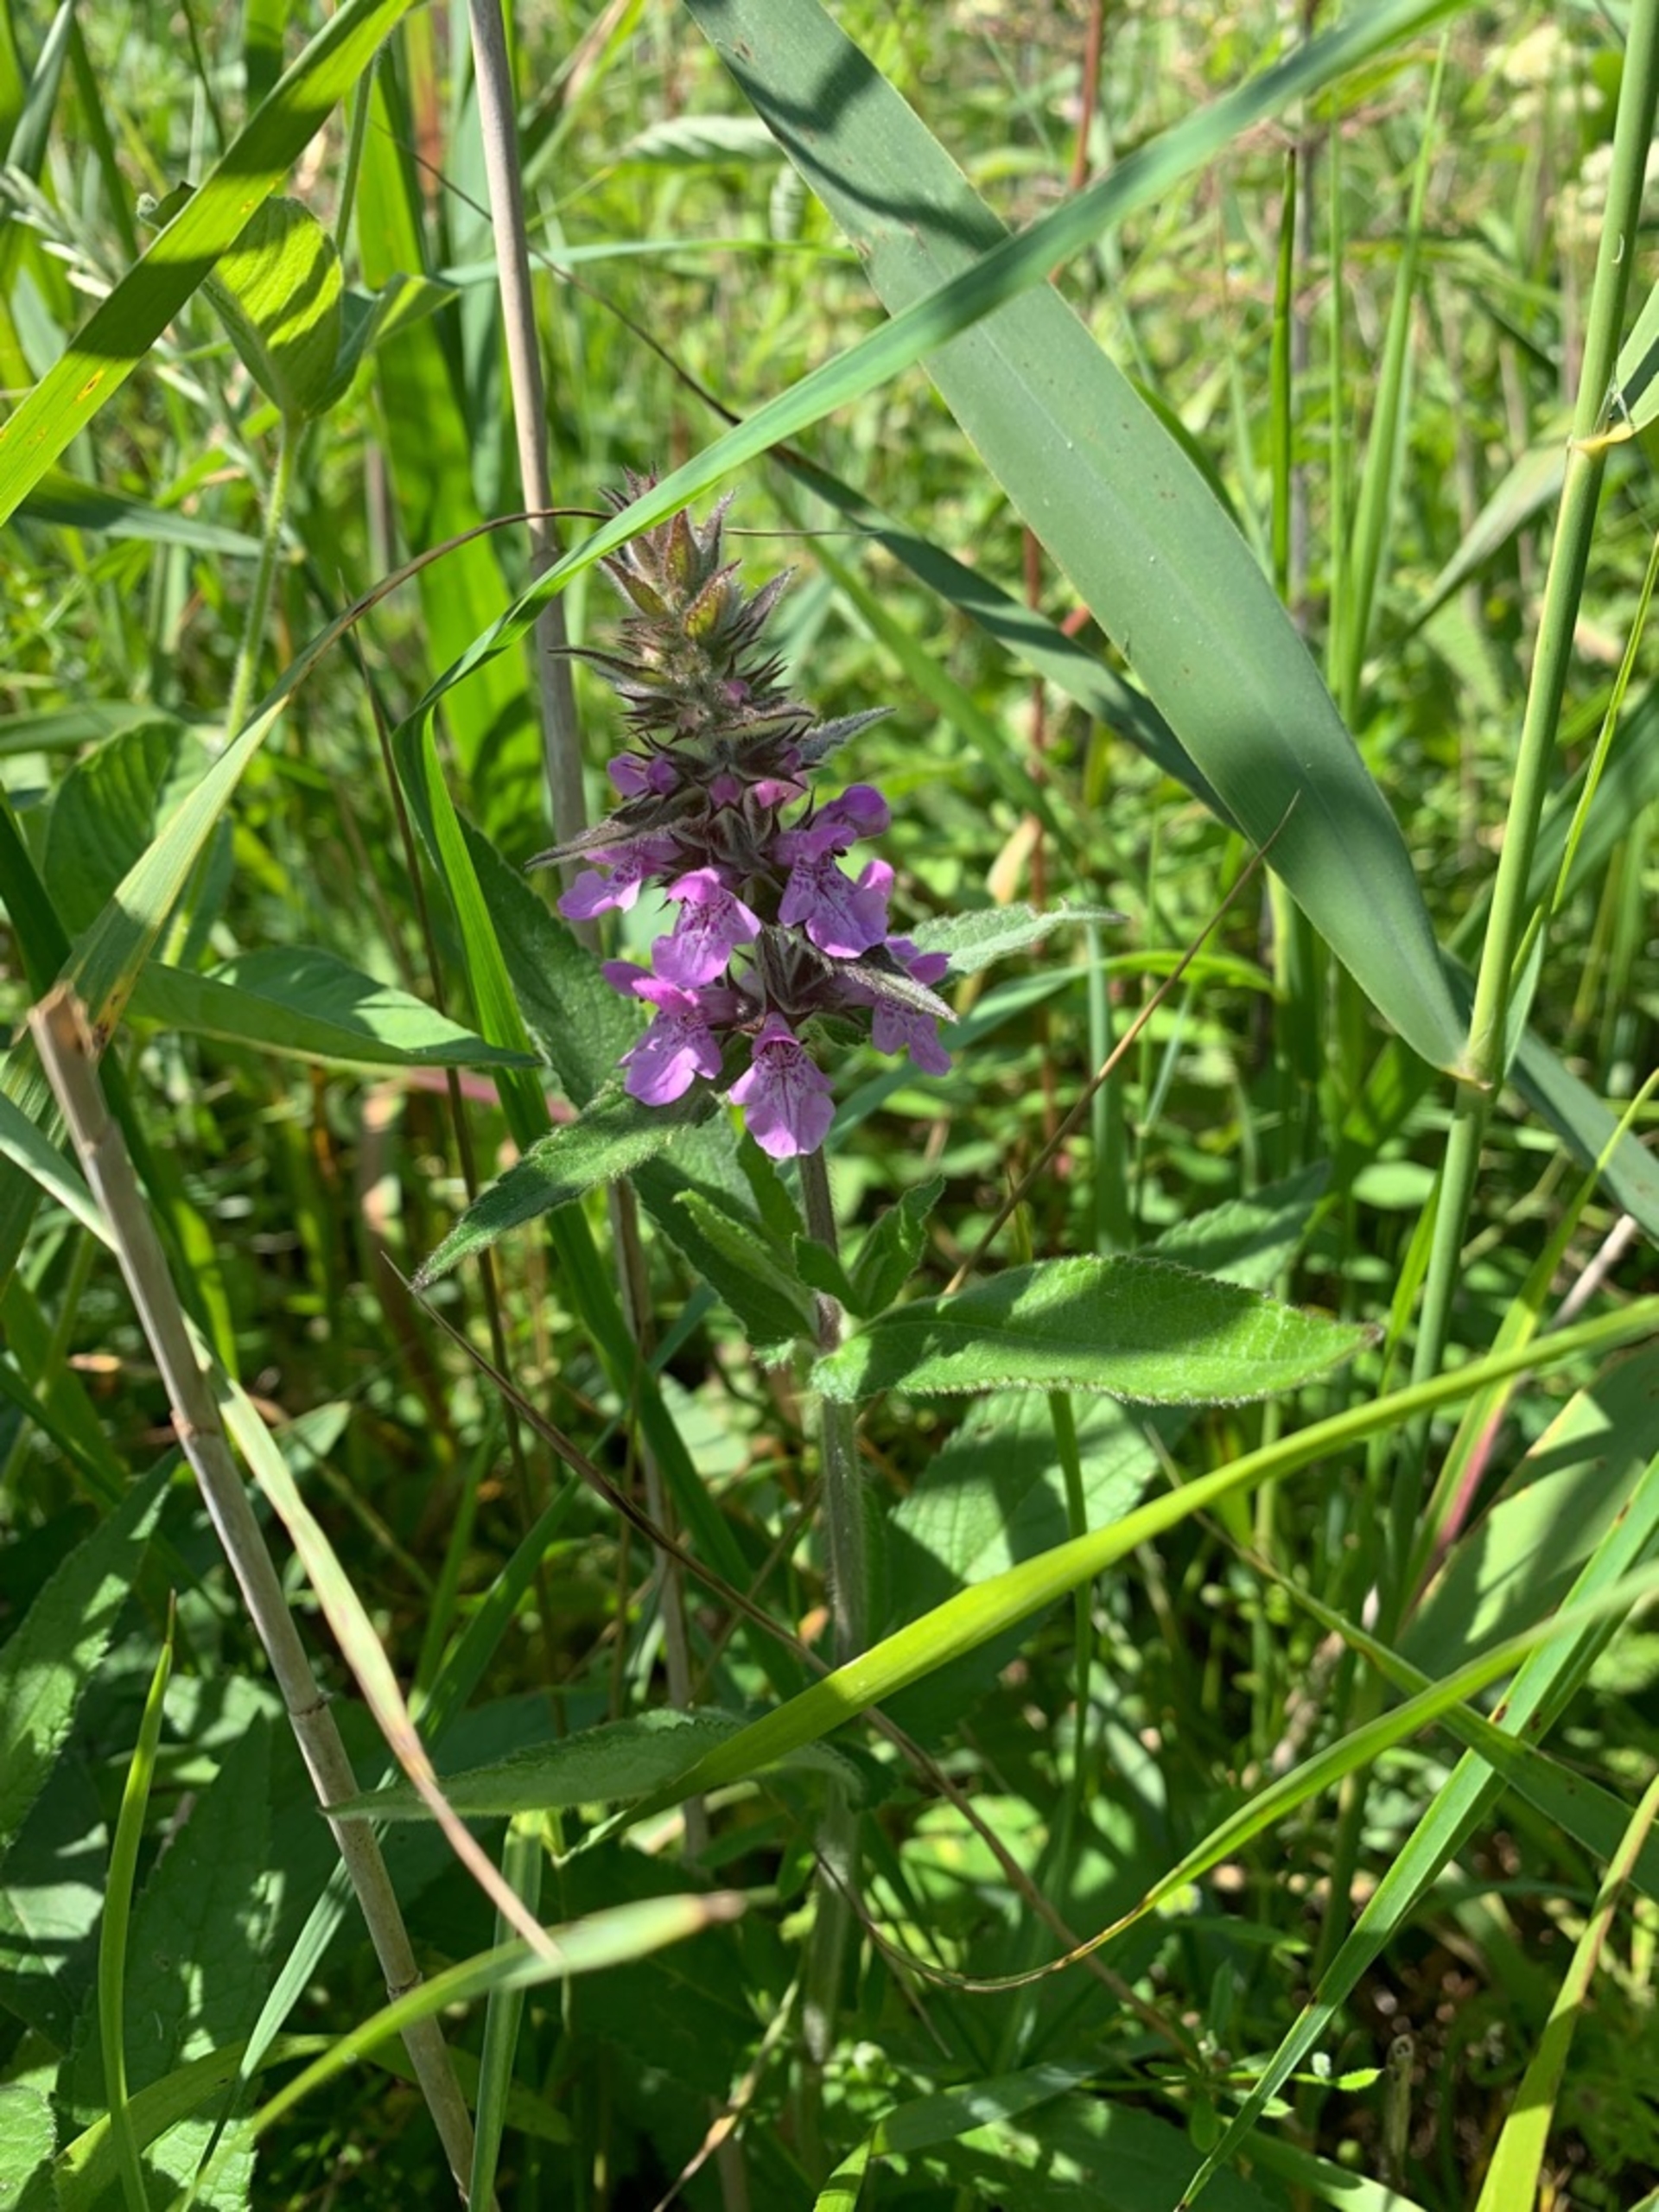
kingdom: Plantae
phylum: Tracheophyta
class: Magnoliopsida
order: Lamiales
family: Lamiaceae
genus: Stachys
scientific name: Stachys palustris
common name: Kær-galtetand
